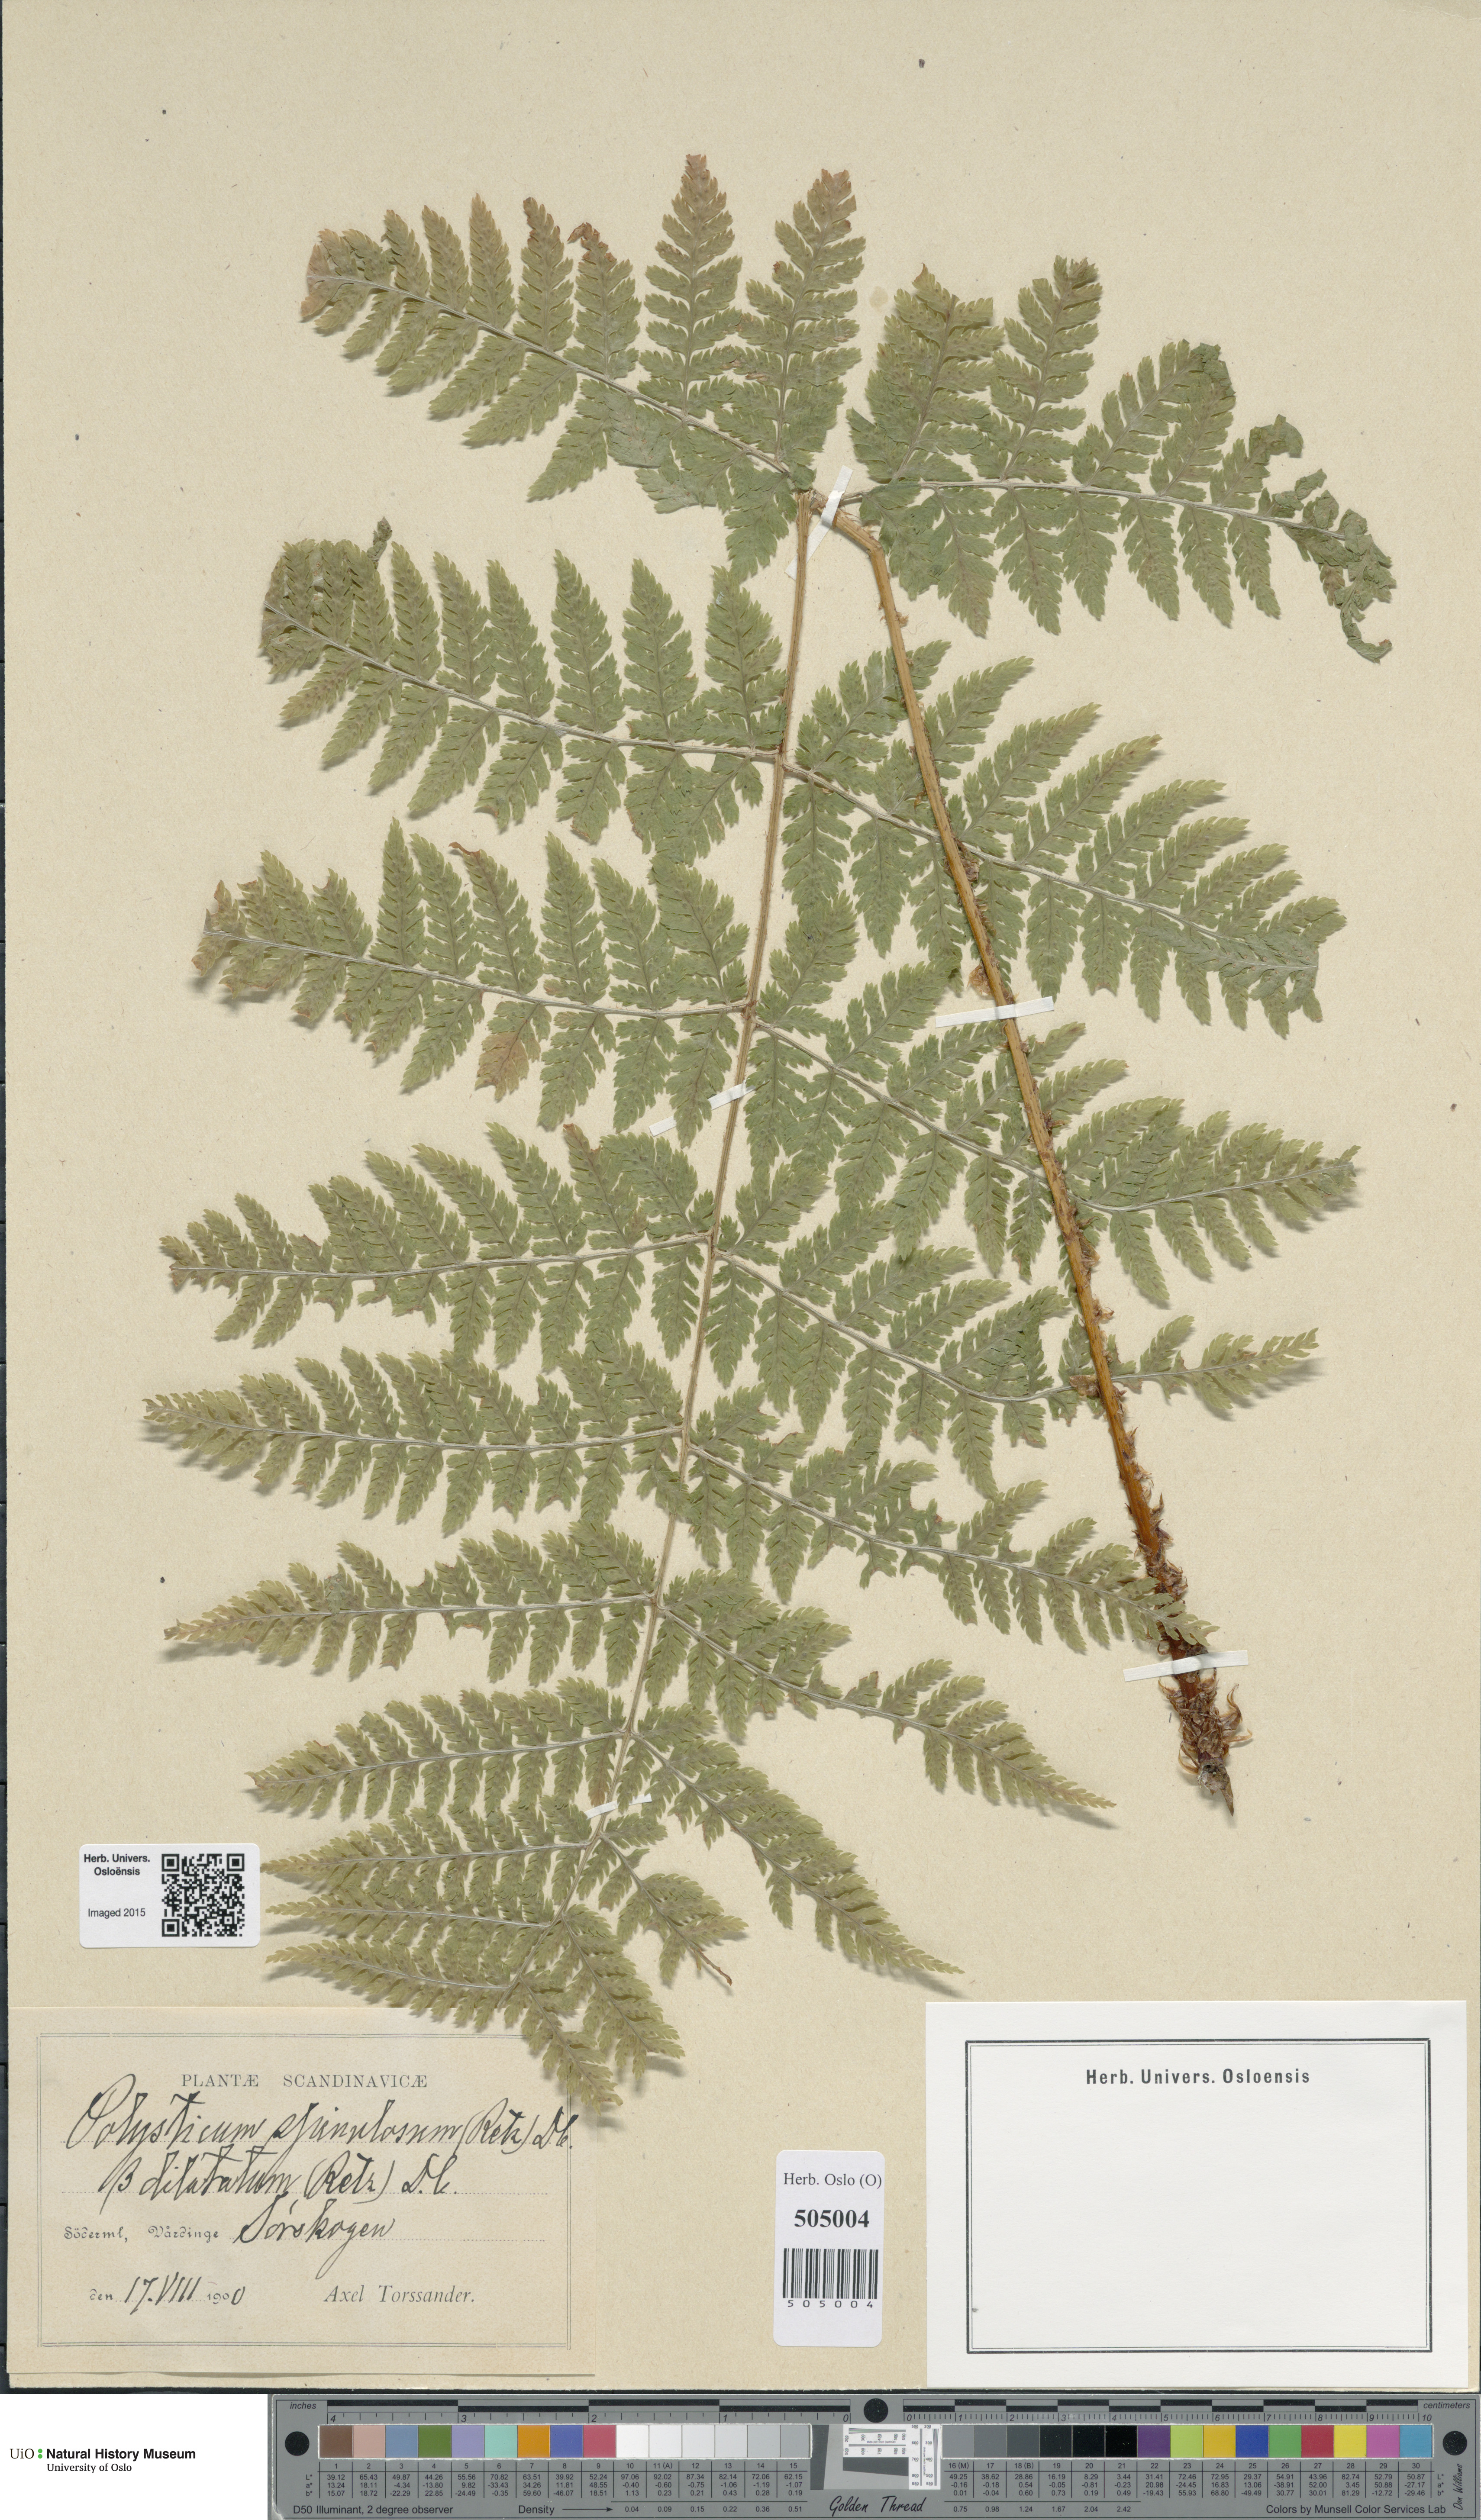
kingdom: Plantae
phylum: Tracheophyta
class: Polypodiopsida
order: Polypodiales
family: Dryopteridaceae
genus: Dryopteris
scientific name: Dryopteris carthusiana
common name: Narrow buckler-fern
